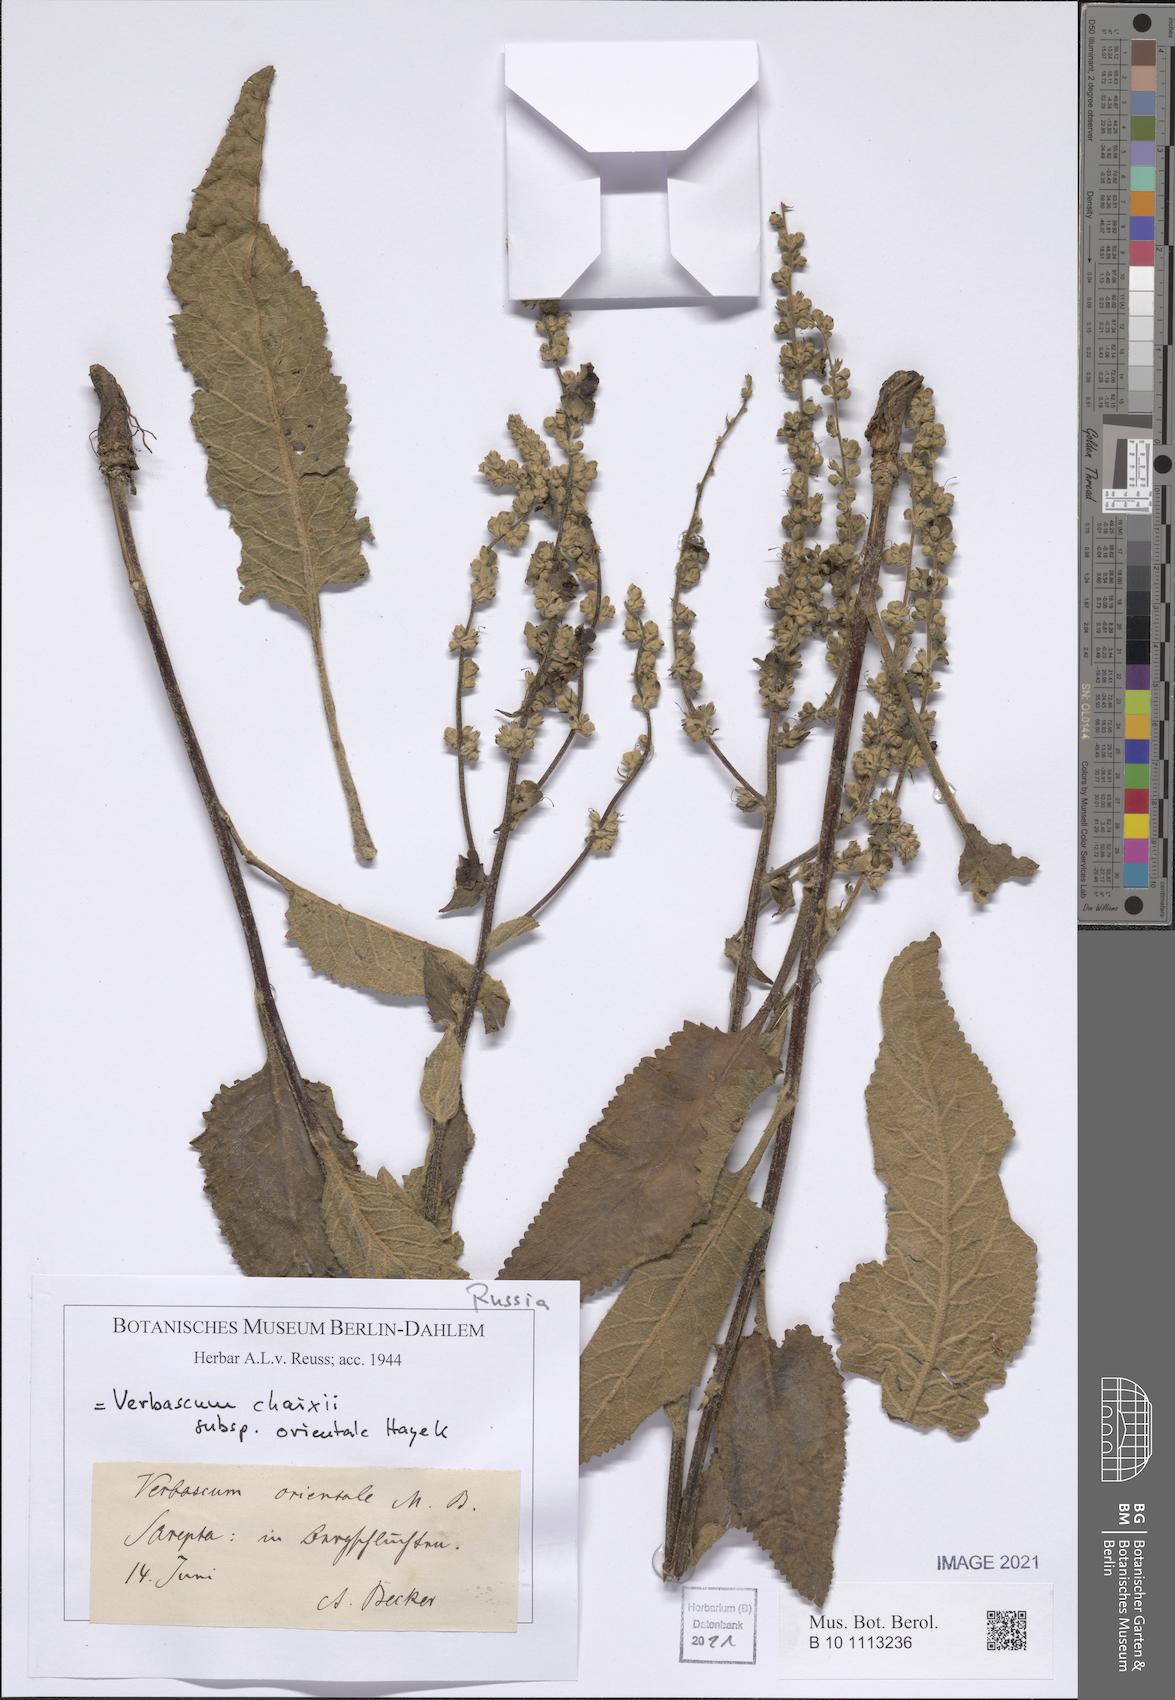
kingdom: Plantae
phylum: Tracheophyta
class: Magnoliopsida
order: Lamiales
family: Scrophulariaceae
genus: Verbascum
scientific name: Verbascum chaixii
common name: Nettle-leaved mullein
